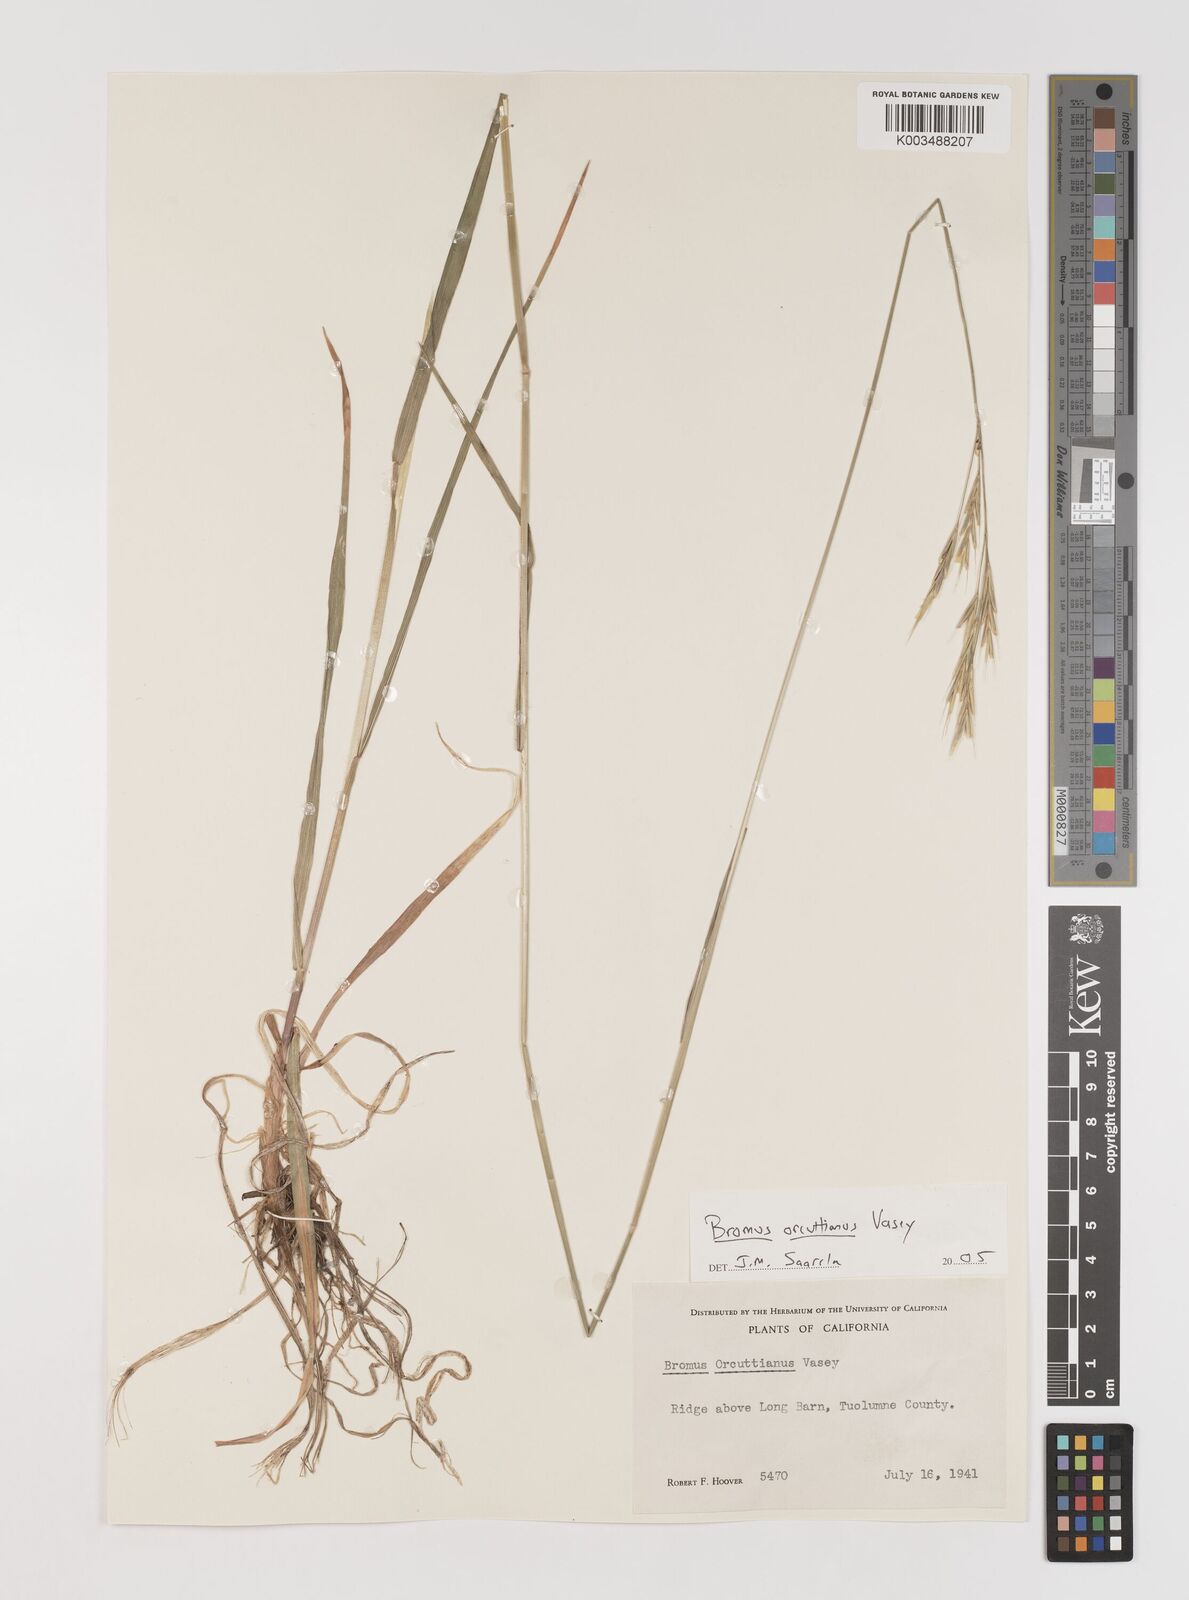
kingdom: Plantae
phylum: Tracheophyta
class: Liliopsida
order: Poales
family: Poaceae
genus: Bromus
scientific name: Bromus orcuttianus
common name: Orcutt's brome
